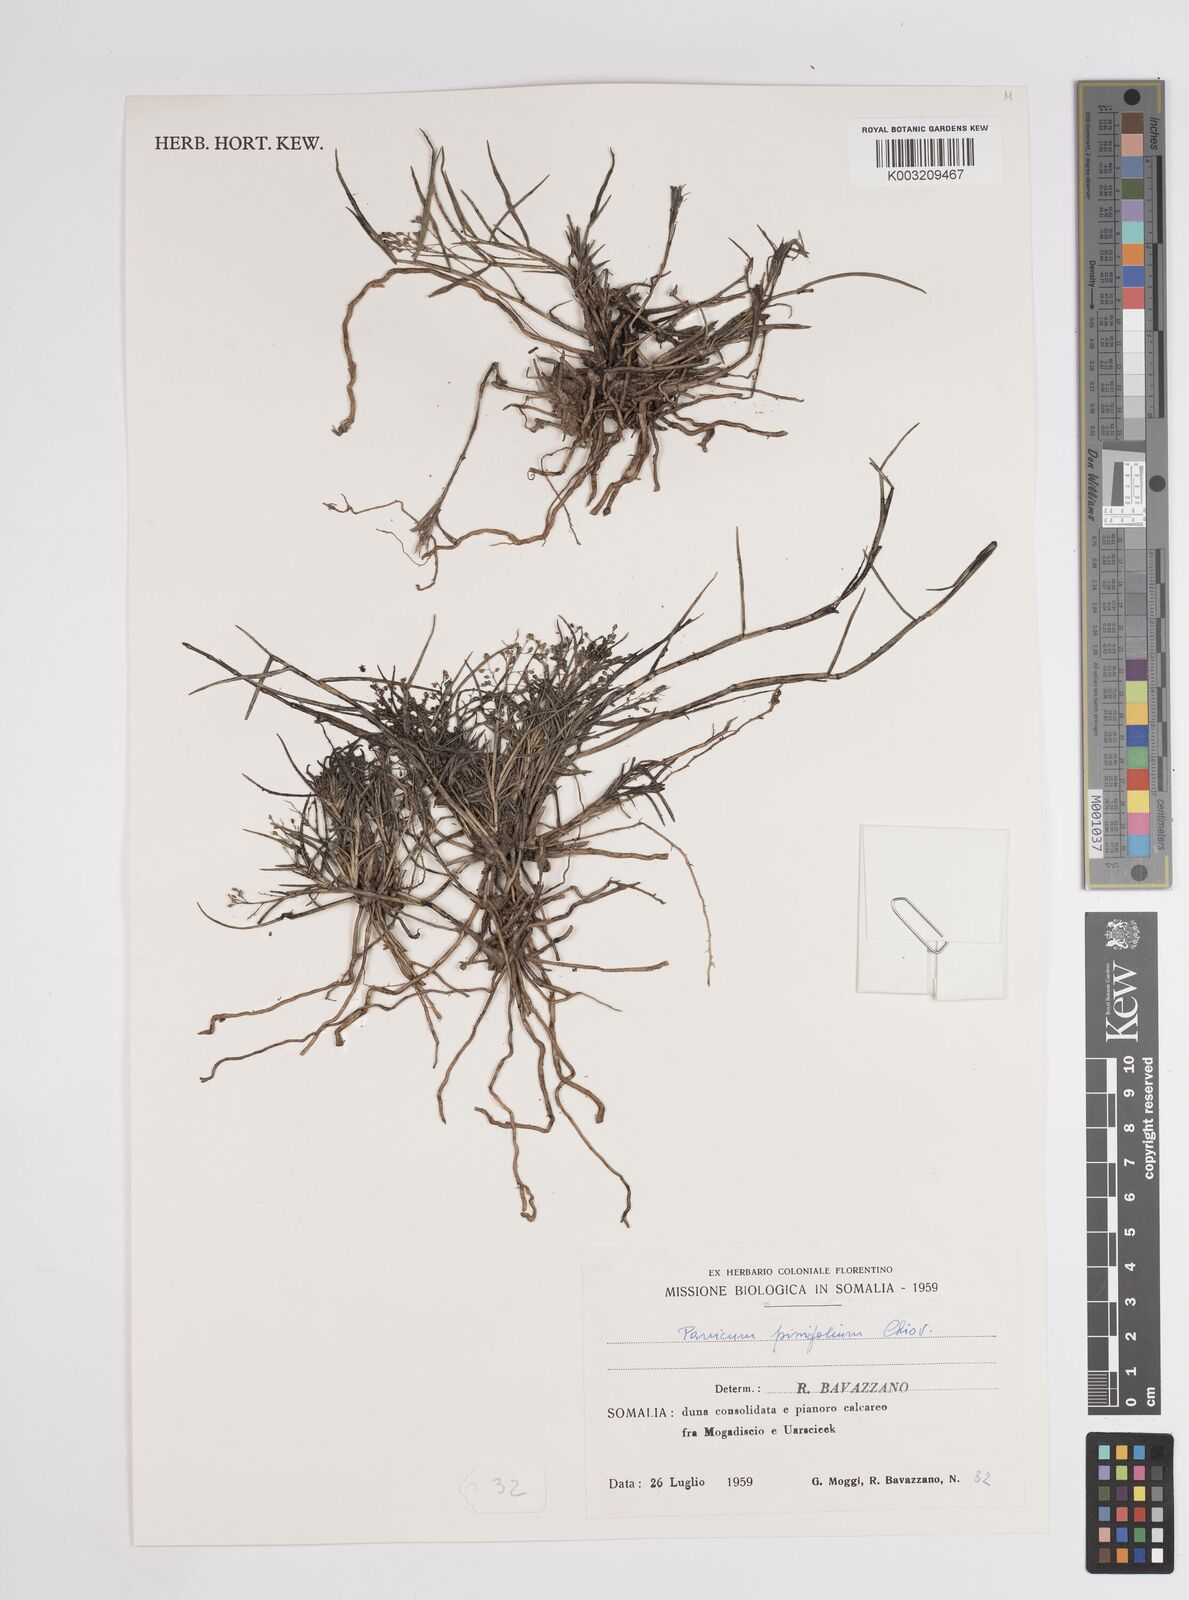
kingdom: Plantae
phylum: Tracheophyta
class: Liliopsida
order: Poales
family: Poaceae
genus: Panicum
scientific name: Panicum pinifolium
